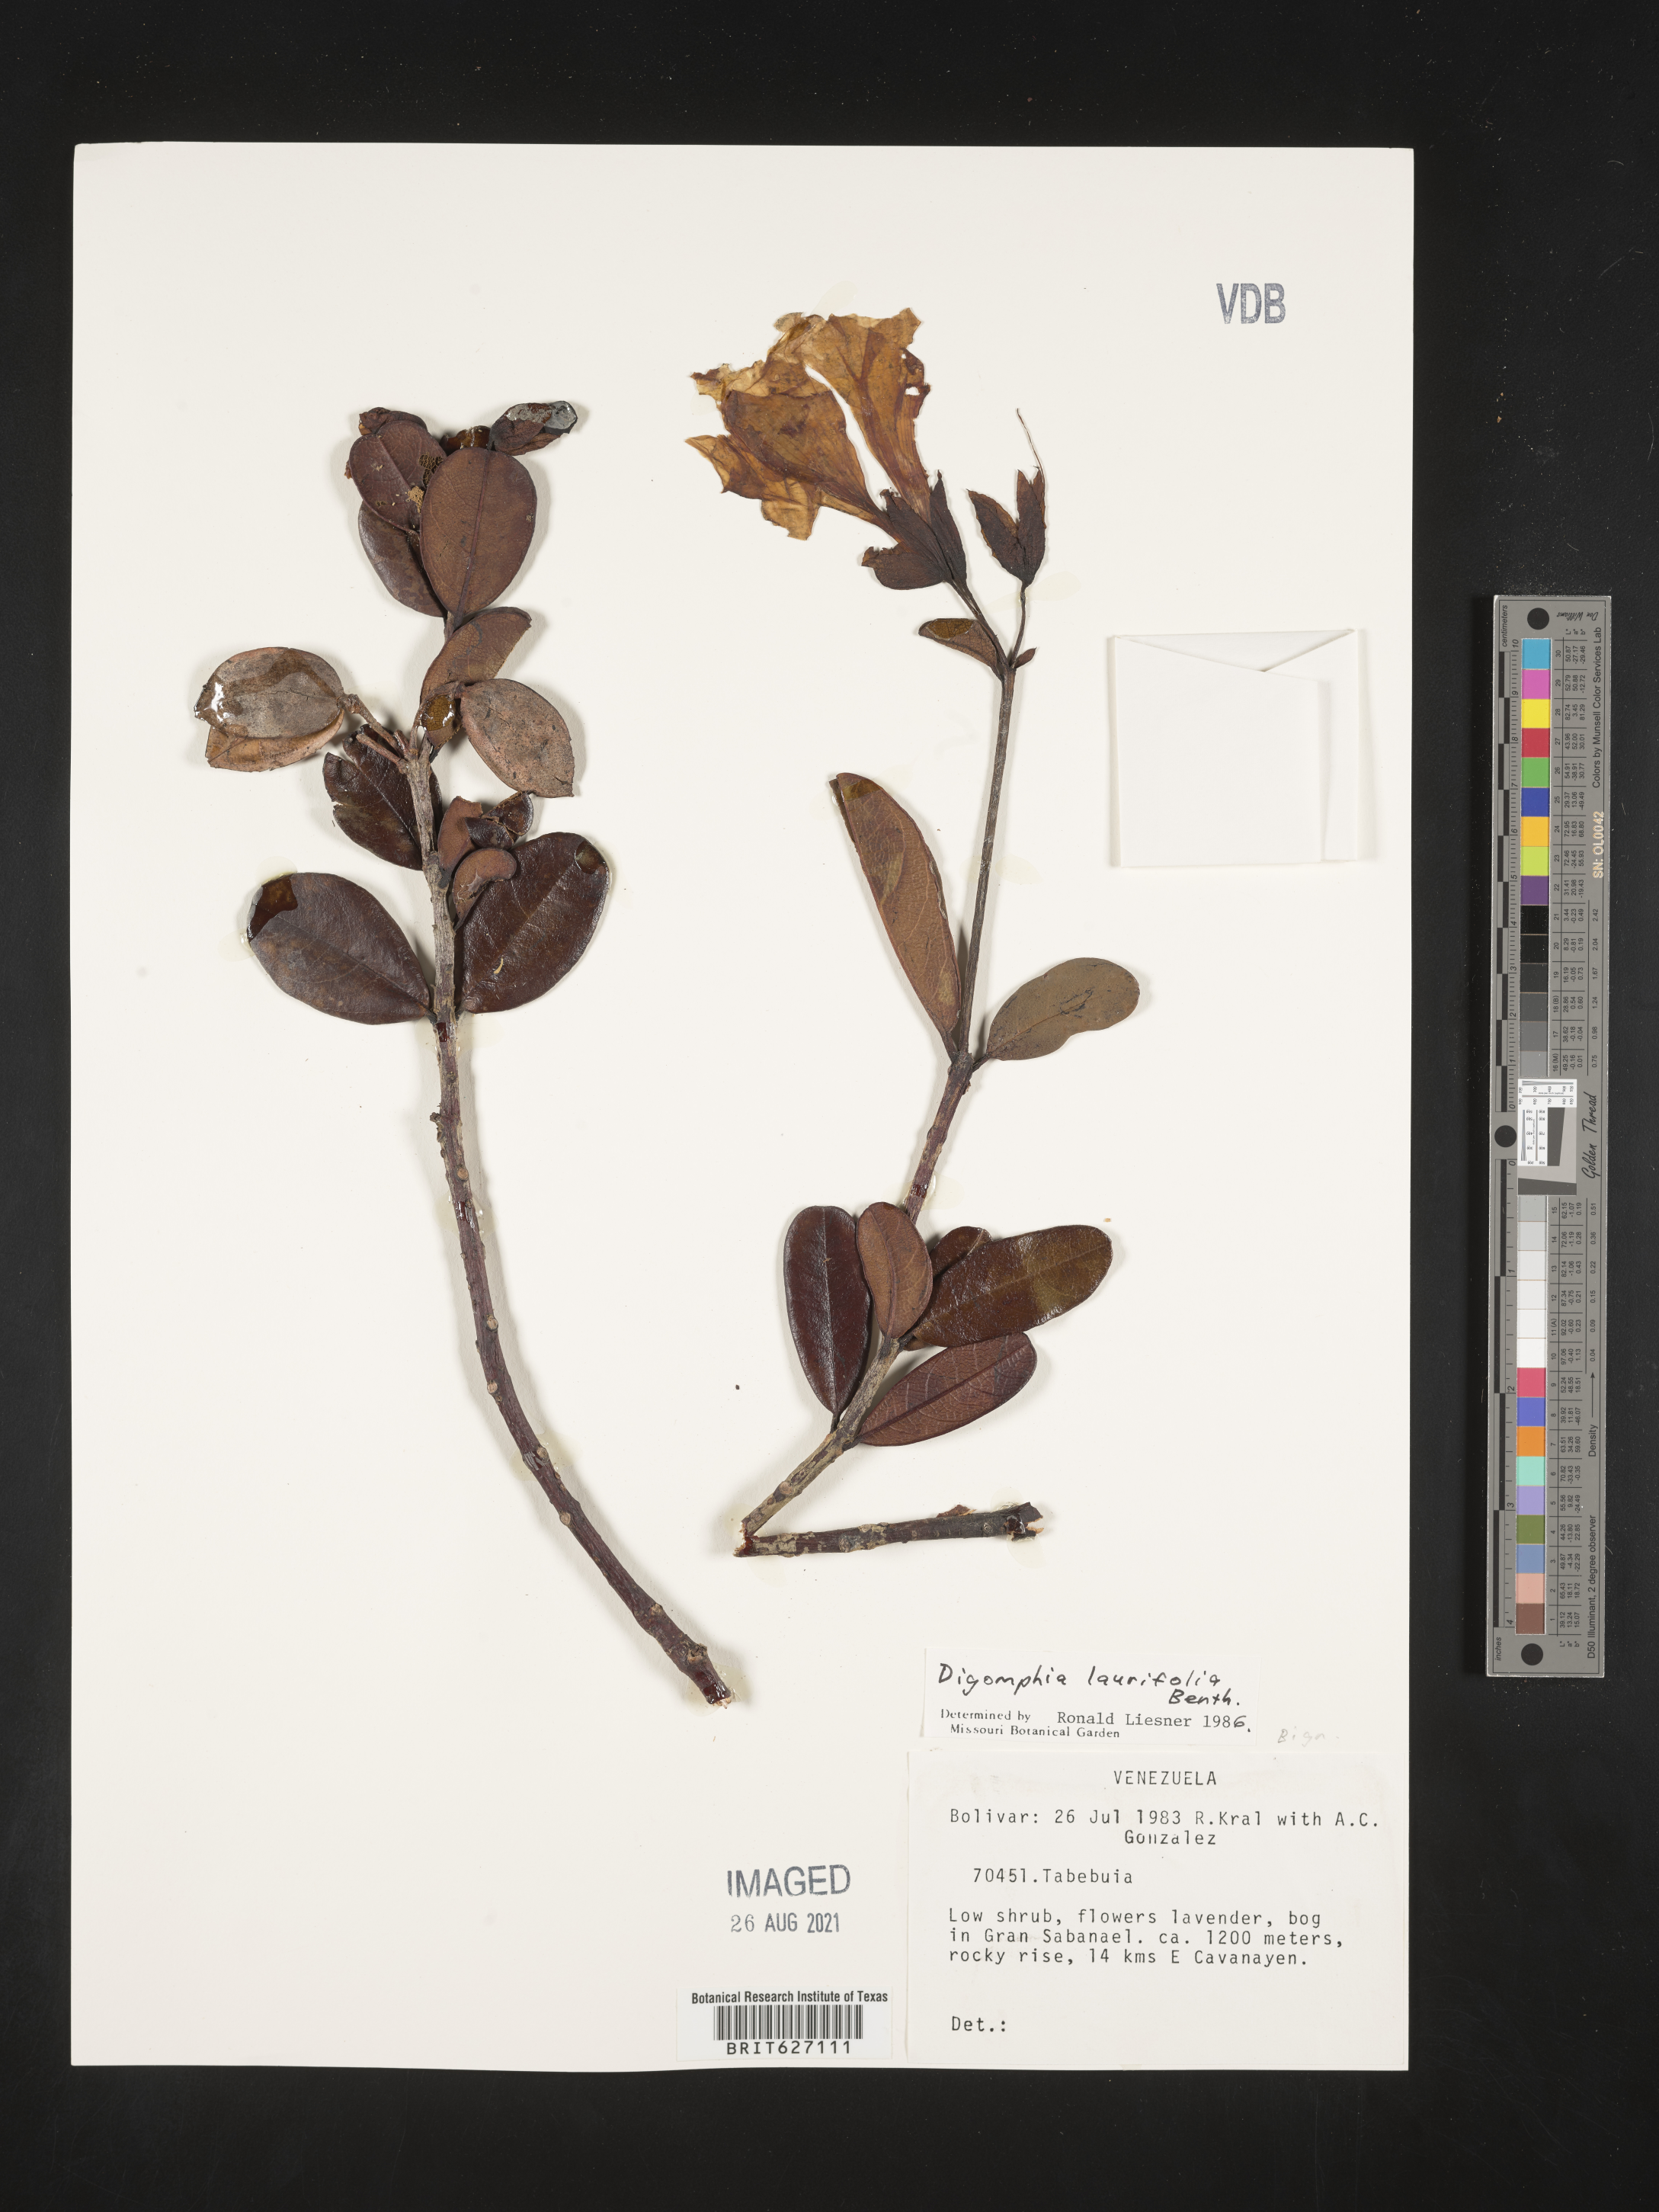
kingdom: Plantae
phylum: Tracheophyta
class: Magnoliopsida
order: Lamiales
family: Bignoniaceae
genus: Digomphia
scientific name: Digomphia laurifolia
